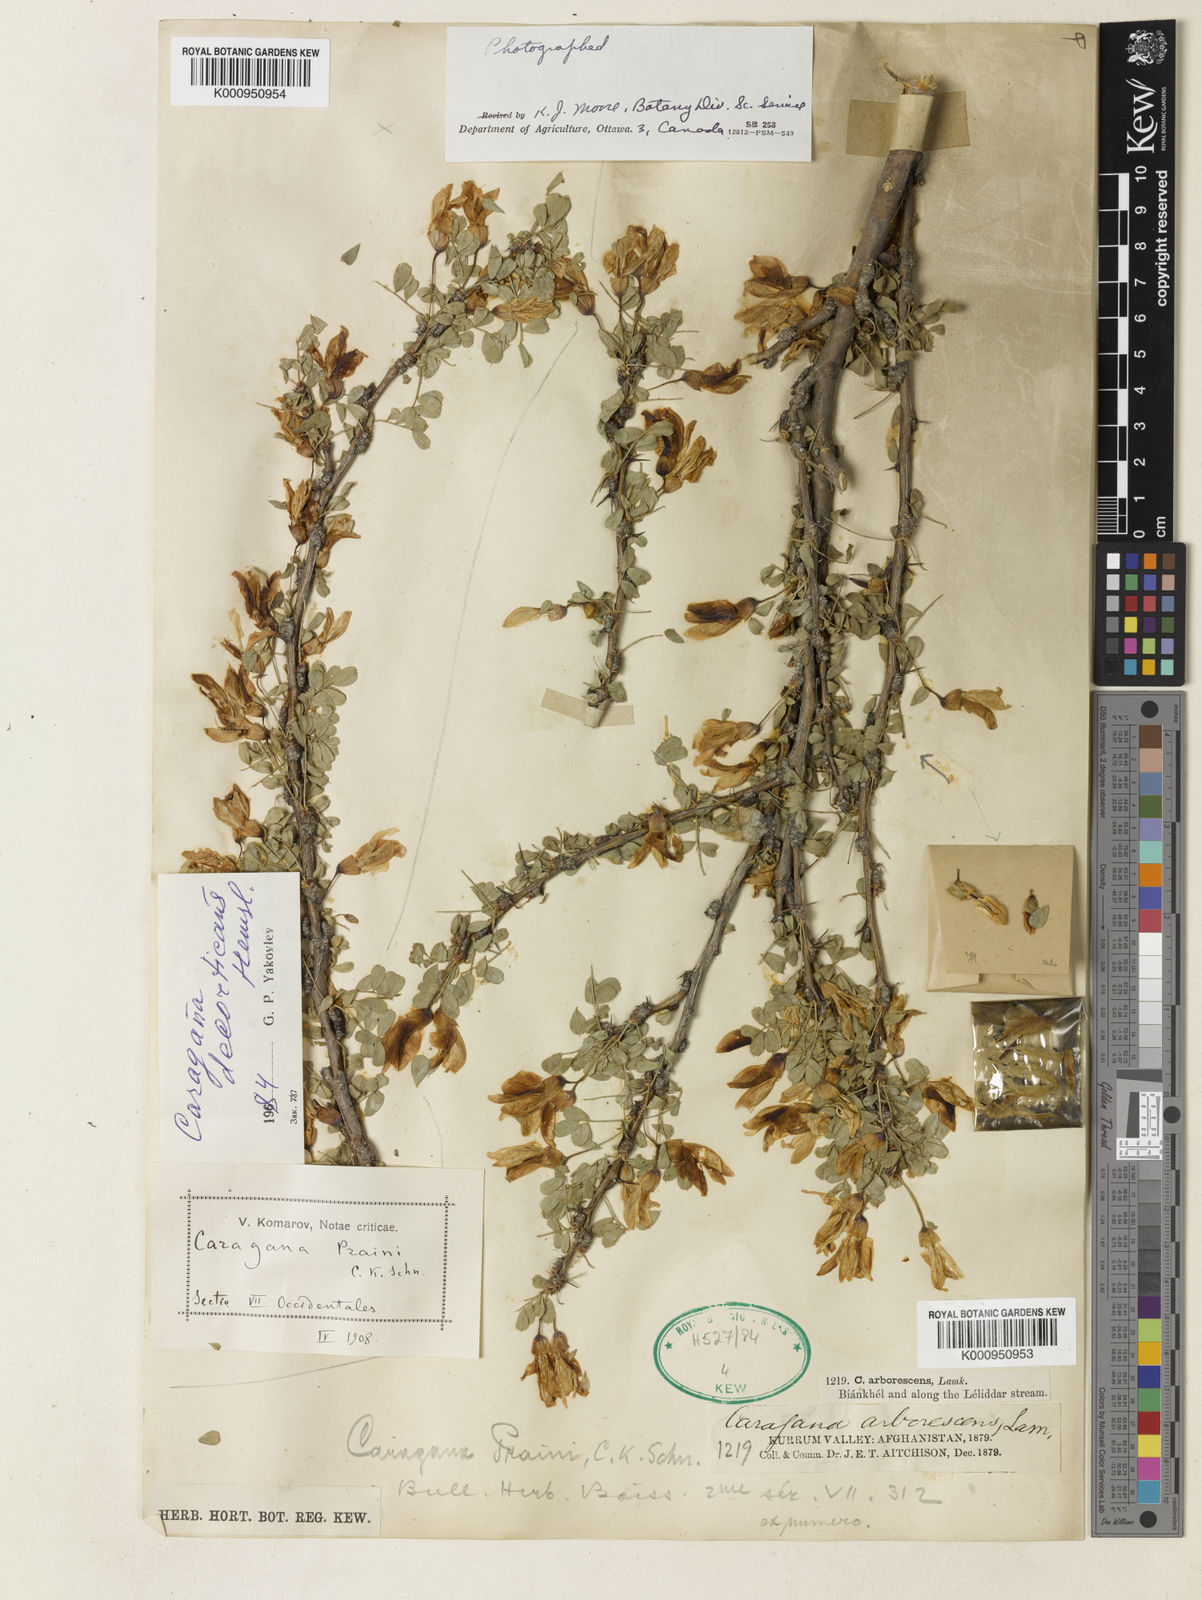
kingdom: Plantae
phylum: Tracheophyta
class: Magnoliopsida
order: Fabales
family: Fabaceae
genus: Caragana
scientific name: Caragana decorticans
